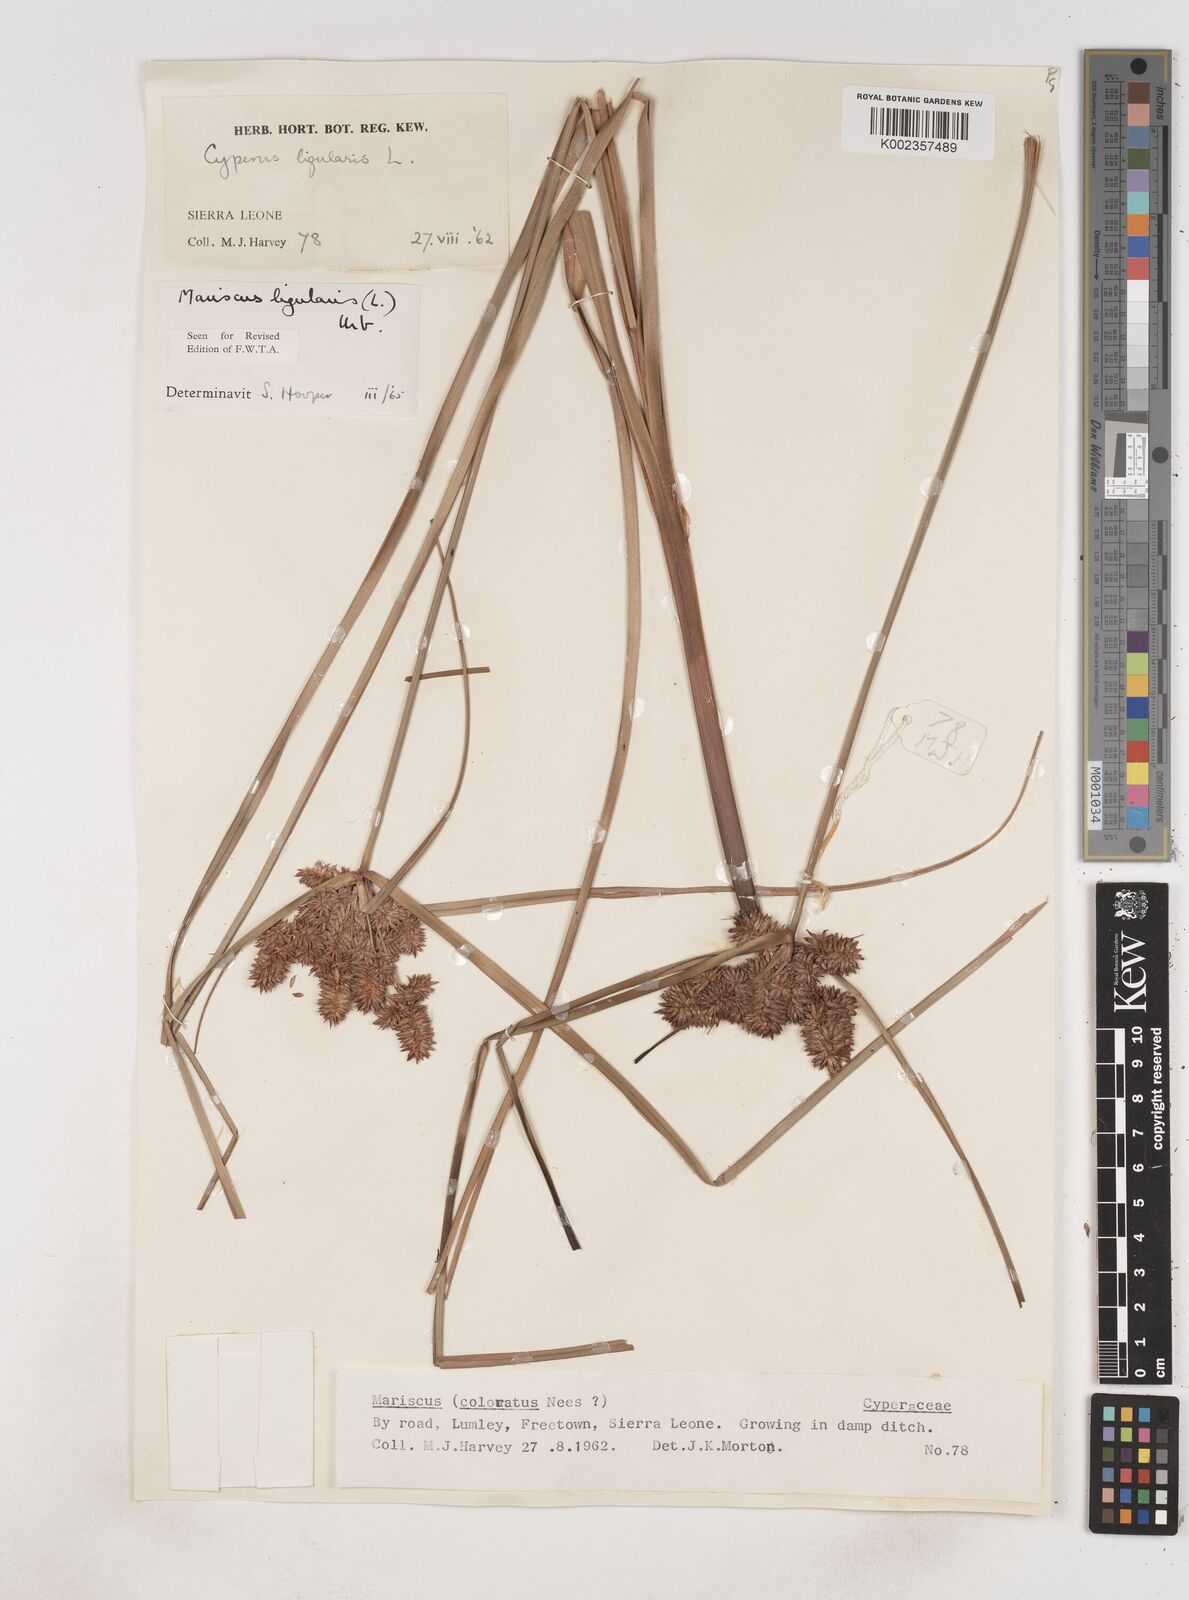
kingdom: Plantae
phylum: Tracheophyta
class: Liliopsida
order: Poales
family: Cyperaceae
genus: Cyperus
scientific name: Cyperus ligularis
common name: Swamp flat sedge
